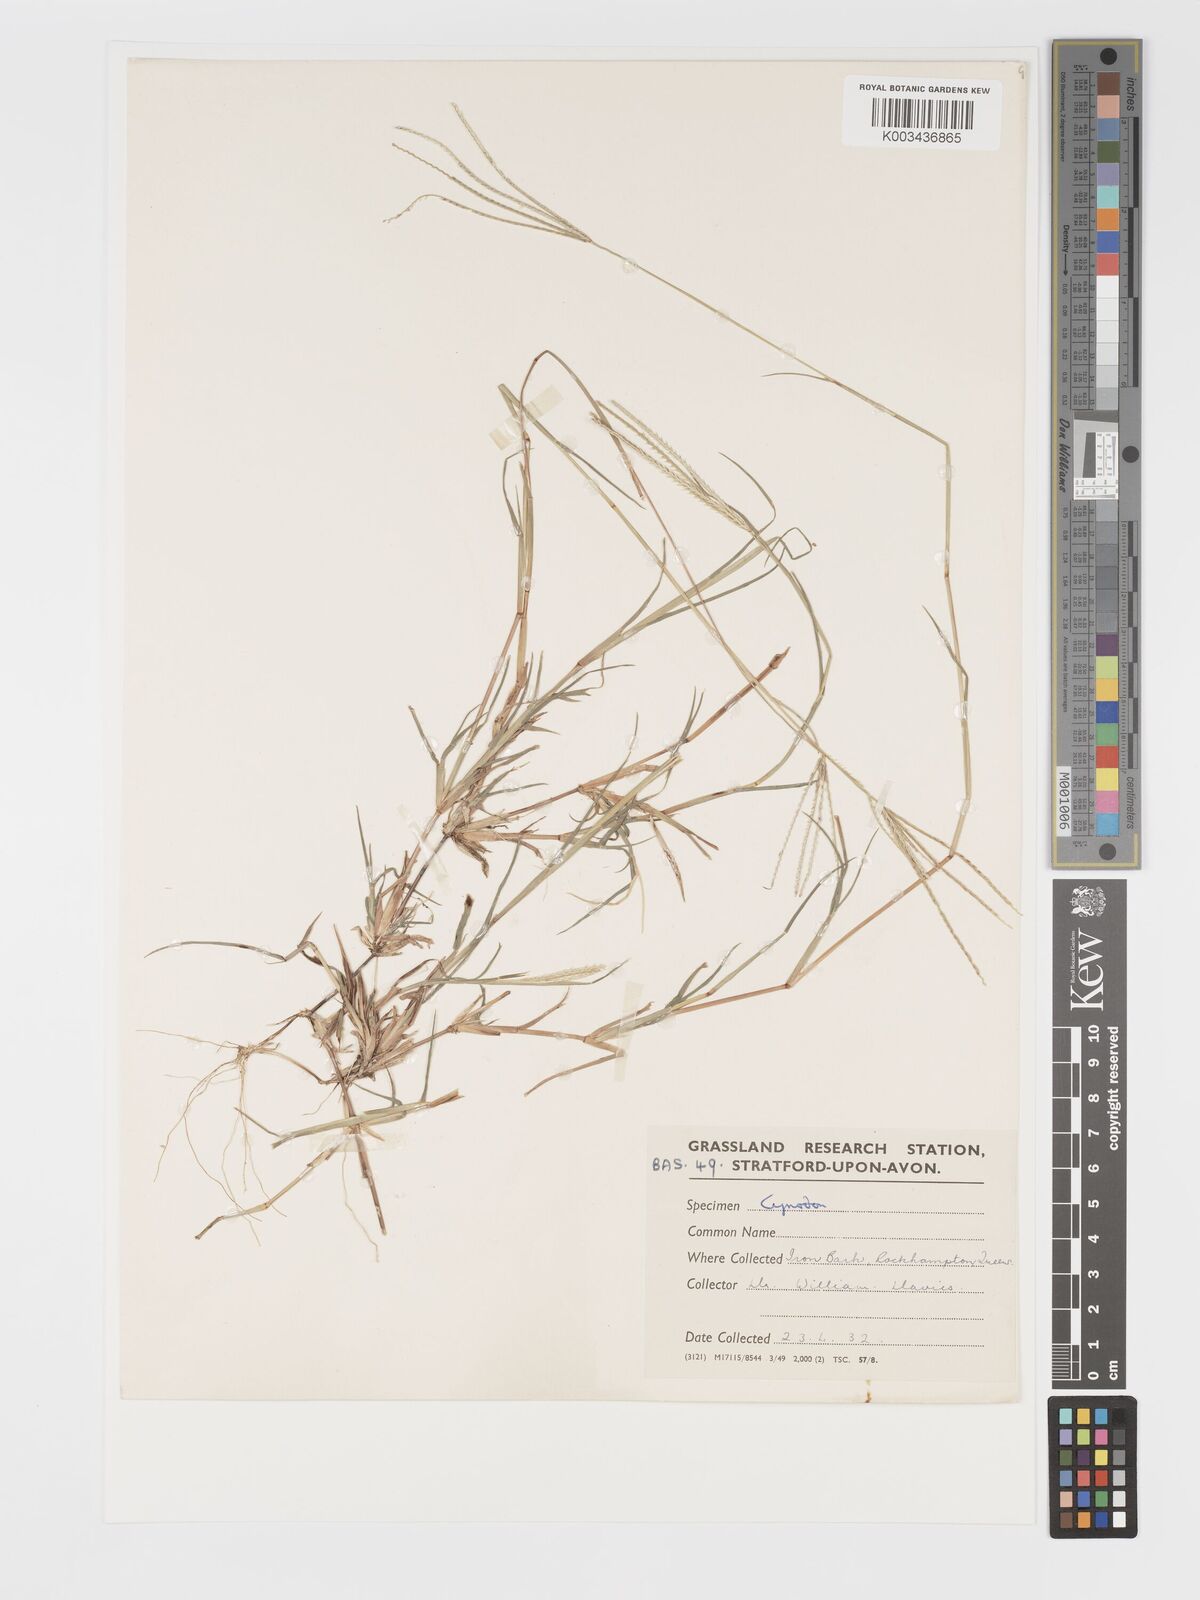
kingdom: Plantae
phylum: Tracheophyta
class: Liliopsida
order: Poales
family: Poaceae
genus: Cynodon
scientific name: Cynodon tenellus
